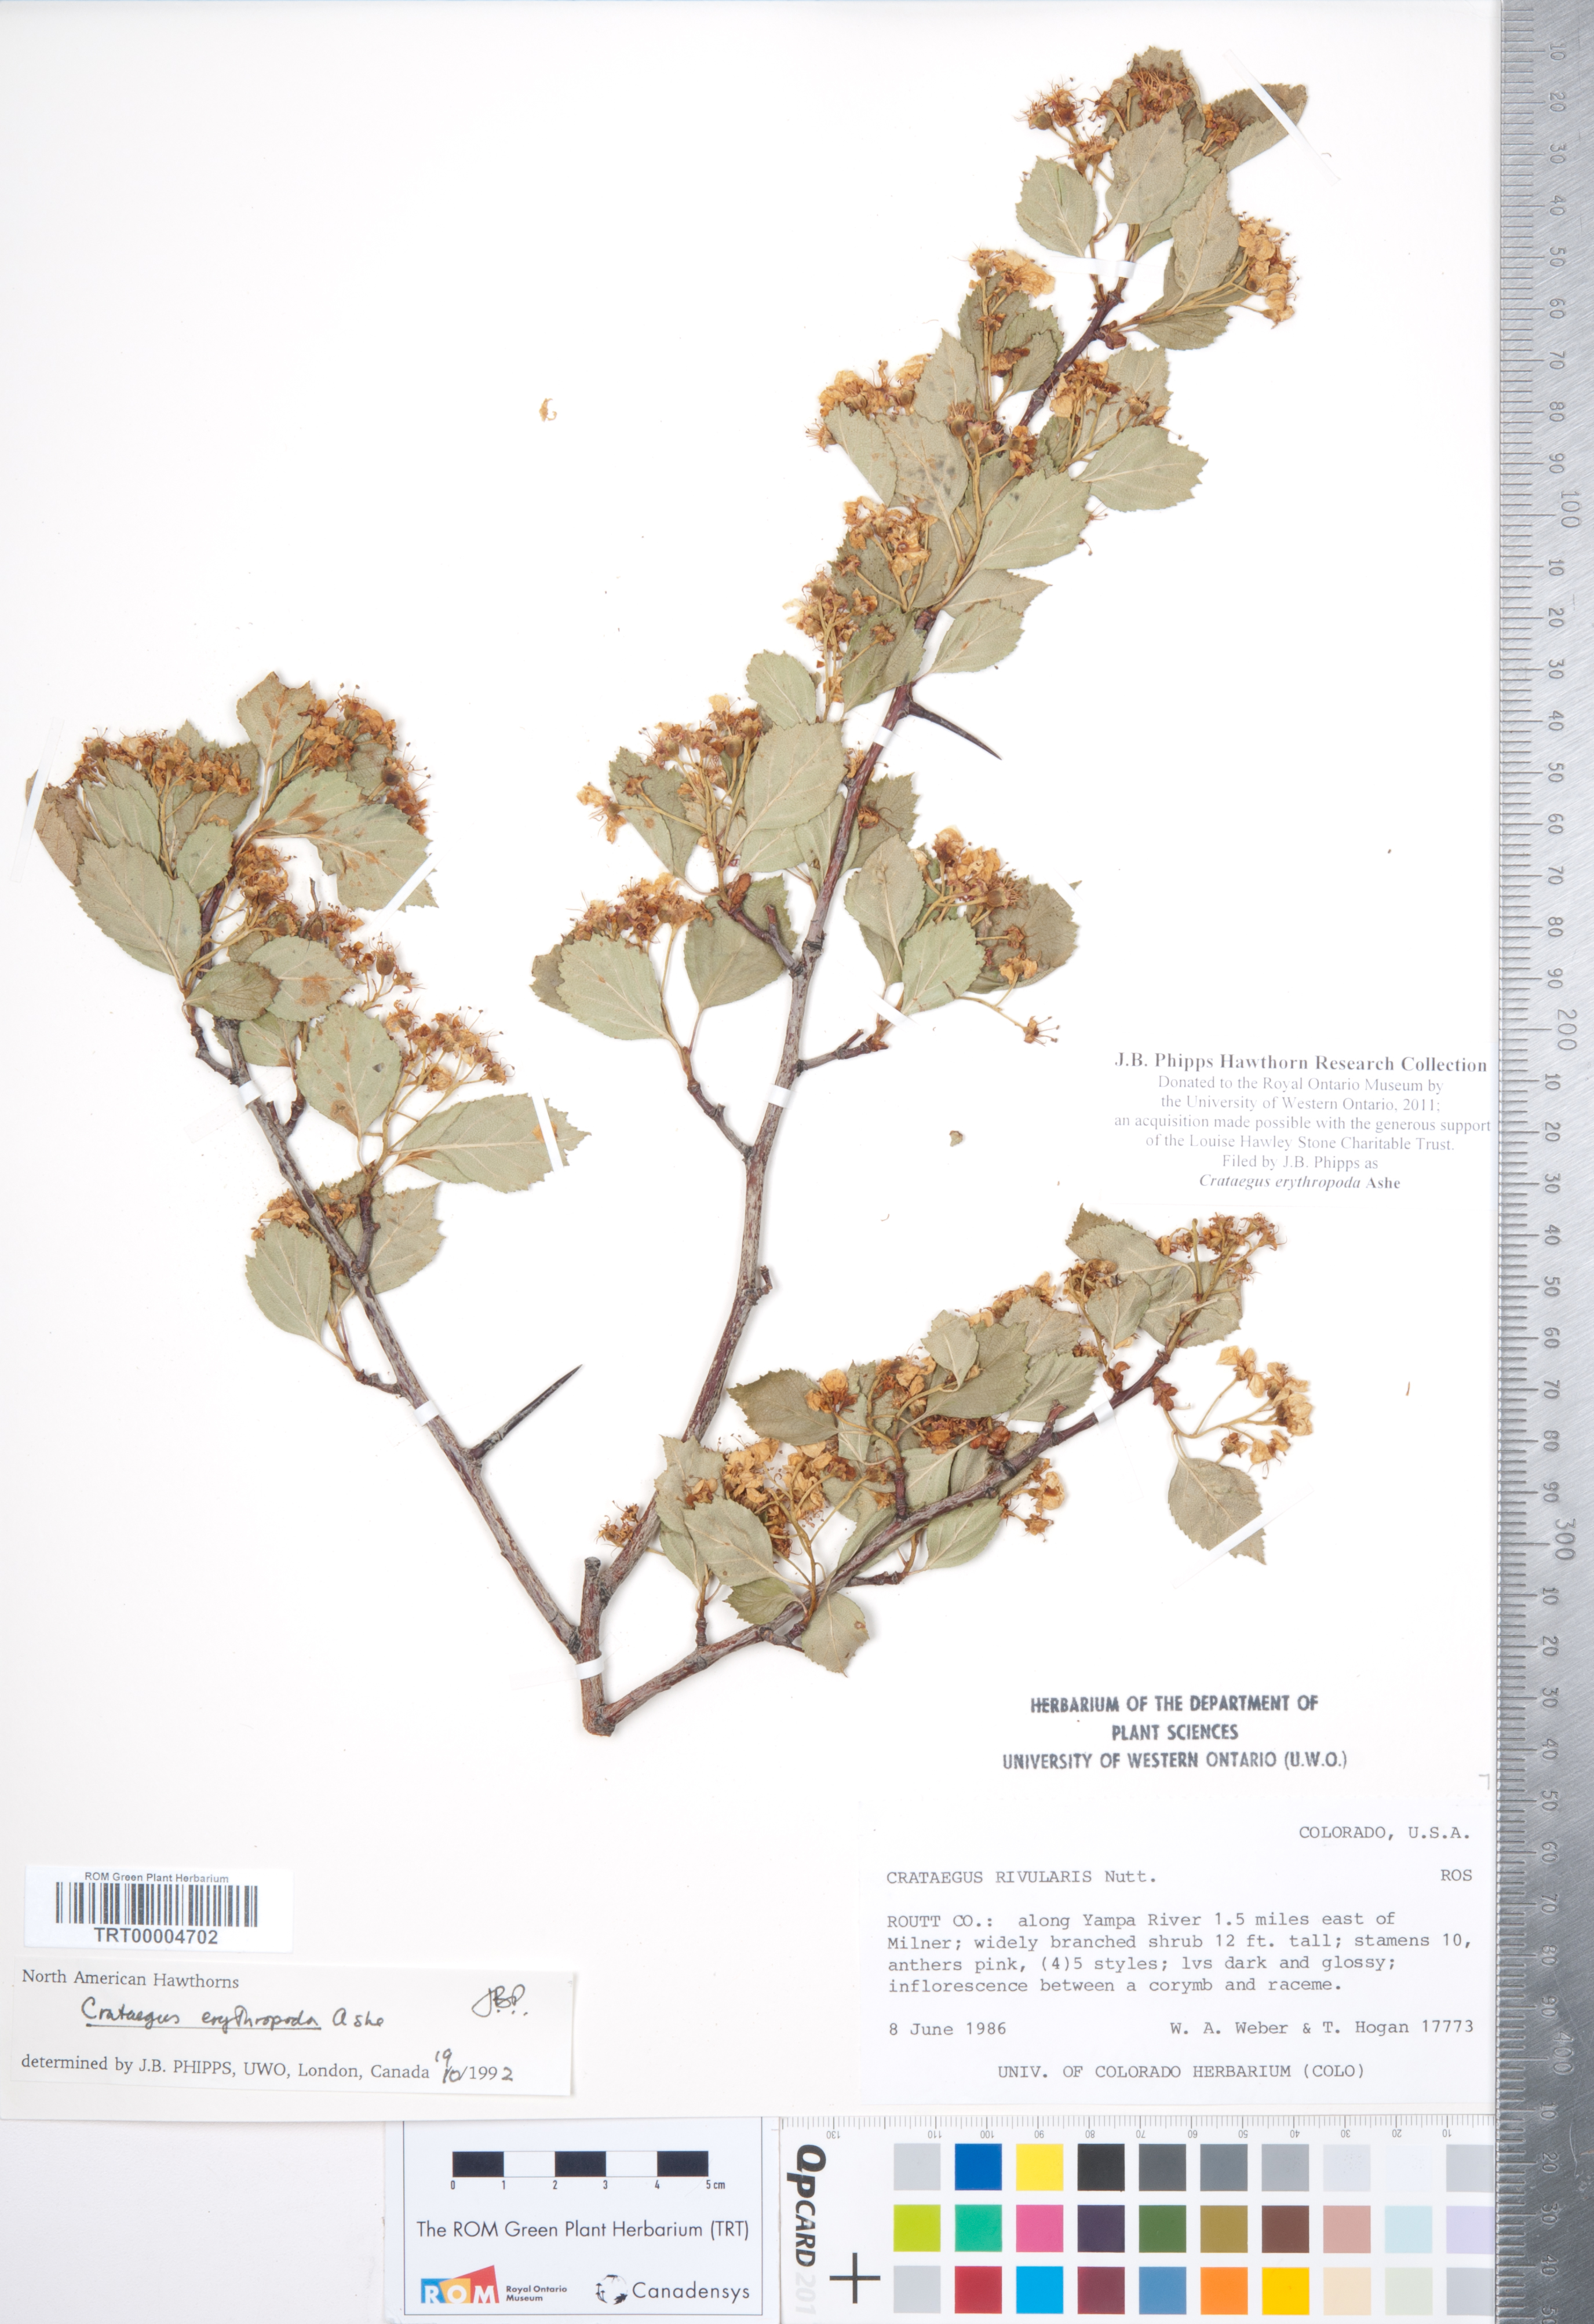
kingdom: Plantae
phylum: Tracheophyta
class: Magnoliopsida
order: Rosales
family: Rosaceae
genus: Crataegus
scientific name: Crataegus erythropoda
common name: Cerro hawthorn
